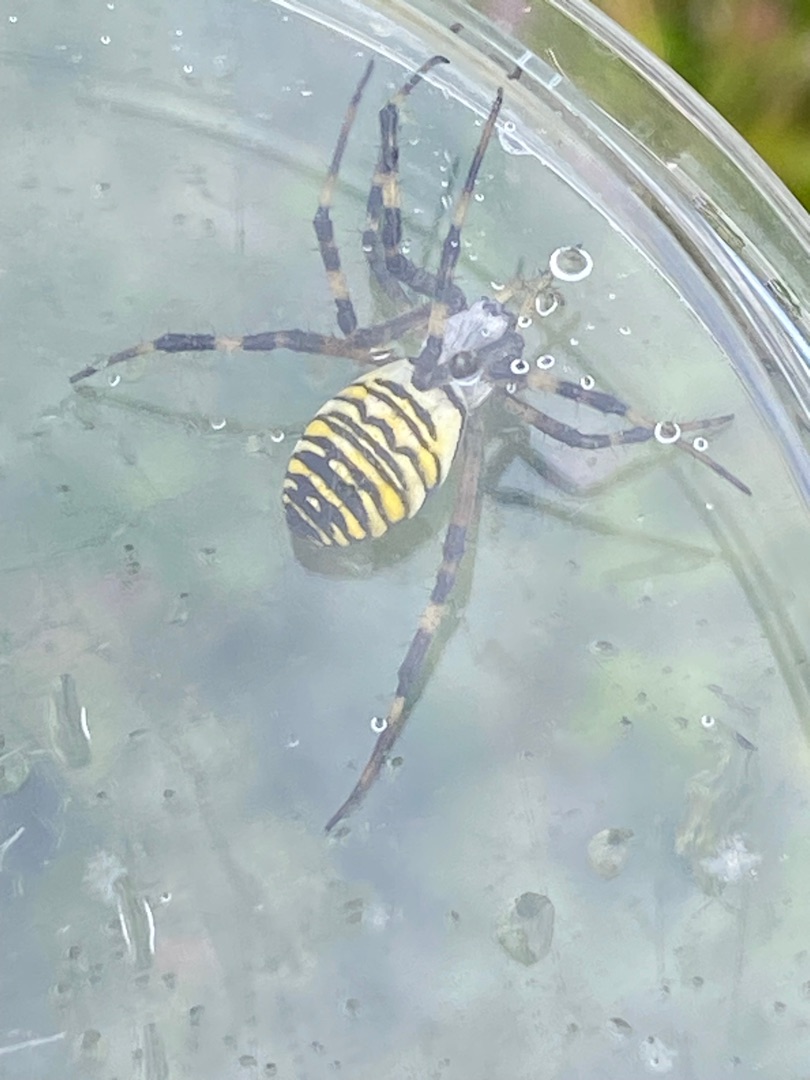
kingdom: Animalia
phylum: Arthropoda
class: Arachnida
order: Araneae
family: Araneidae
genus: Argiope
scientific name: Argiope bruennichi
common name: Hvepseedderkop
